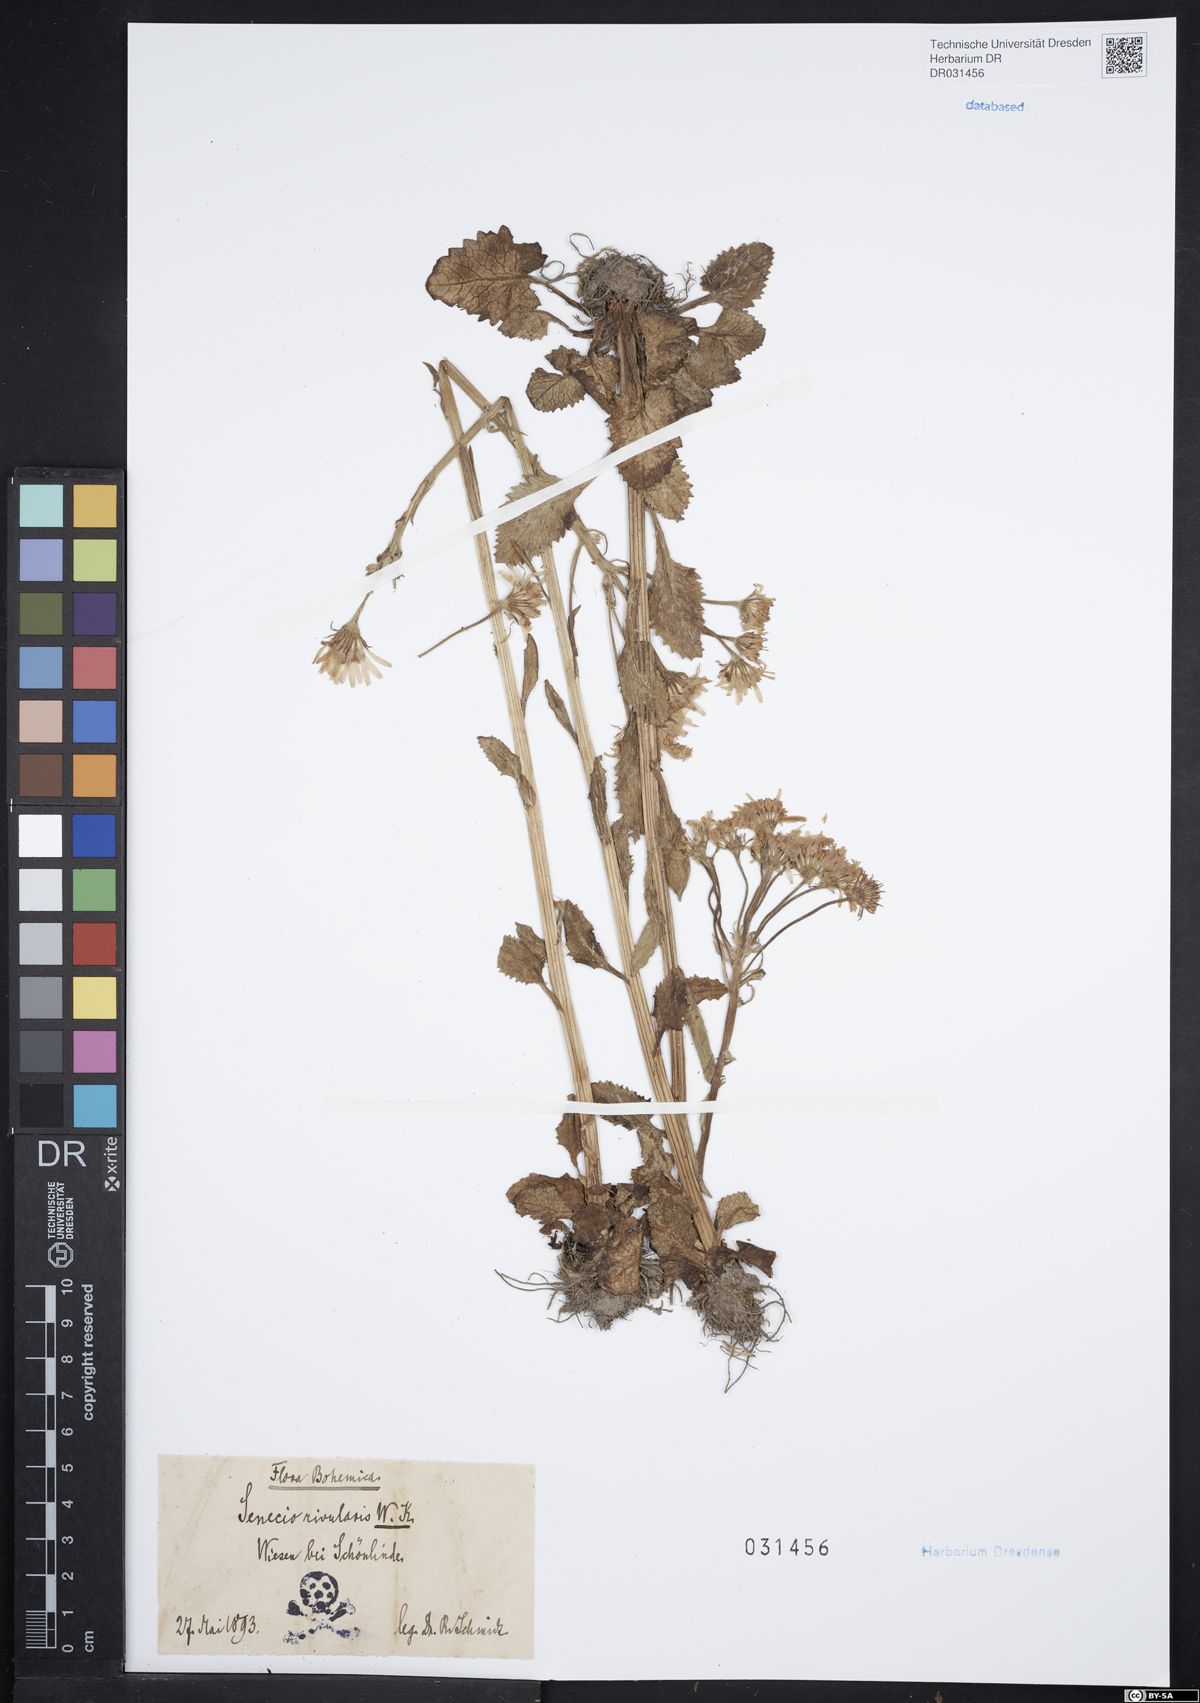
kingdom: Plantae
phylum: Tracheophyta
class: Magnoliopsida
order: Asterales
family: Asteraceae
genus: Tephroseris
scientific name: Tephroseris crispa
